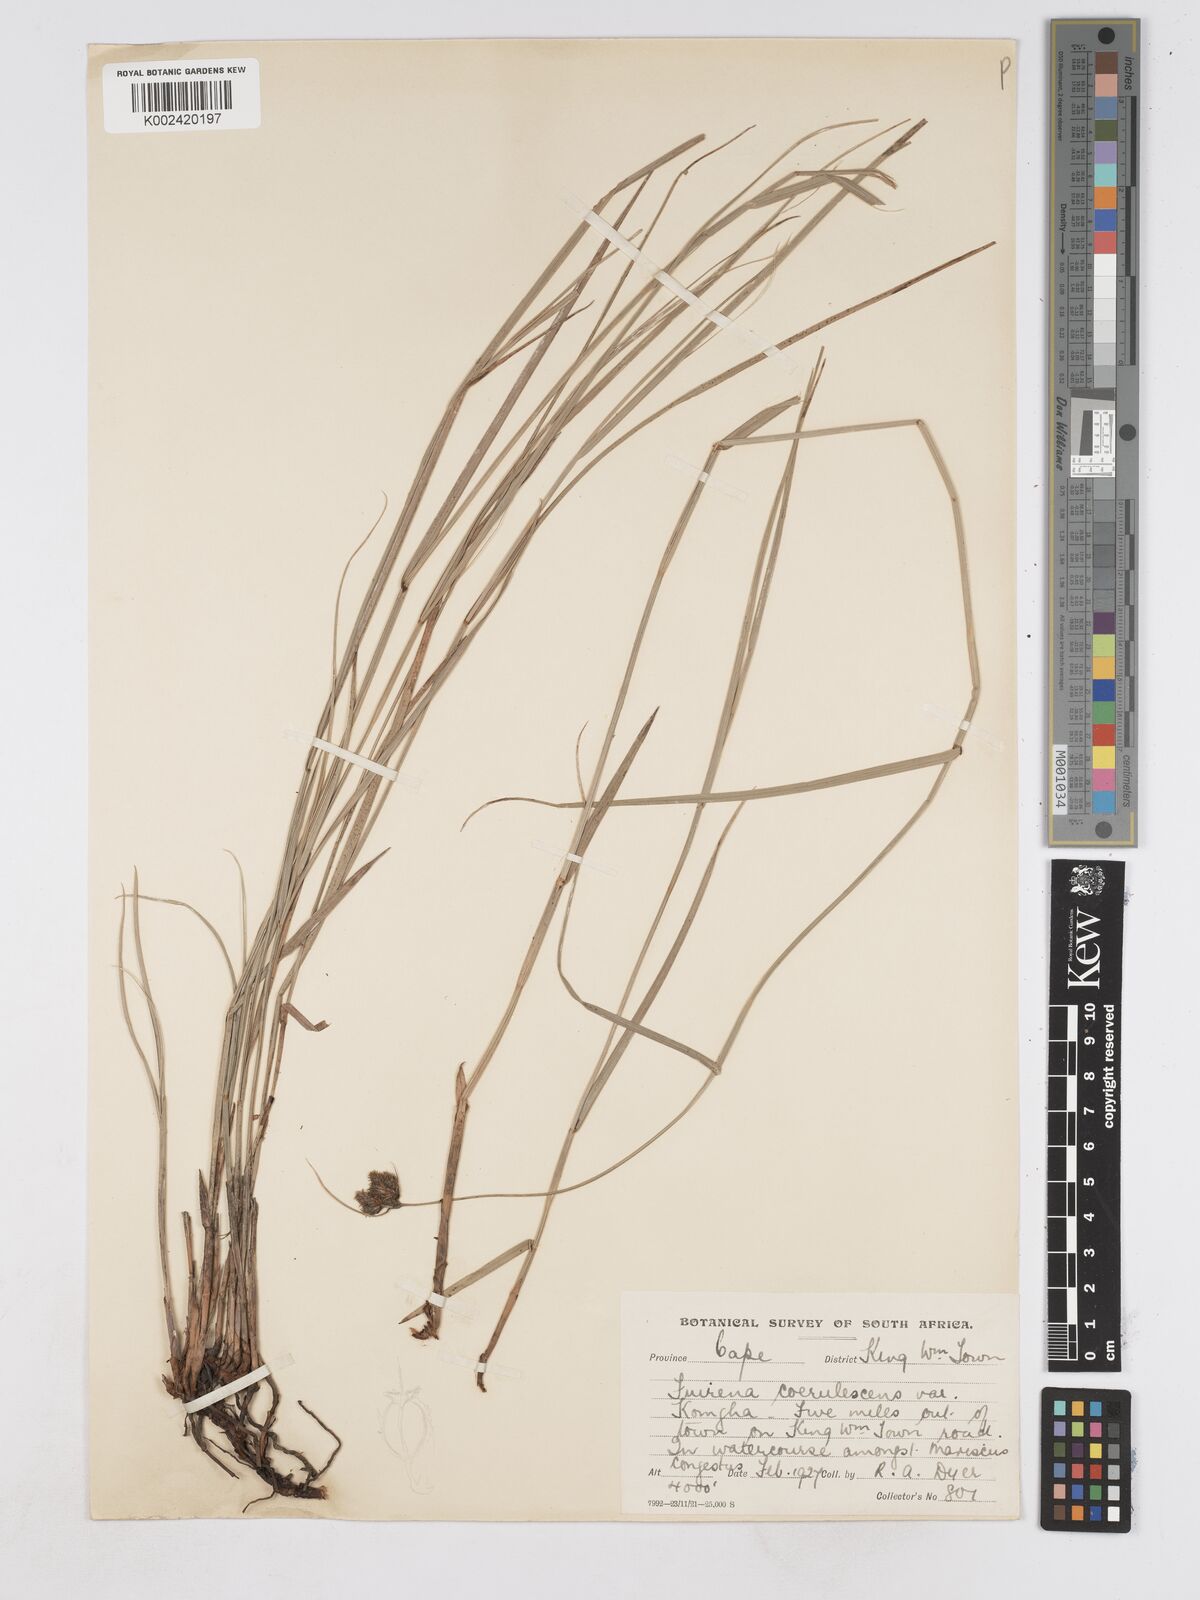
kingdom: Plantae
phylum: Tracheophyta
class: Liliopsida
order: Poales
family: Cyperaceae
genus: Fuirena
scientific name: Fuirena coerulescens
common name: Blue umbrella-sedge
